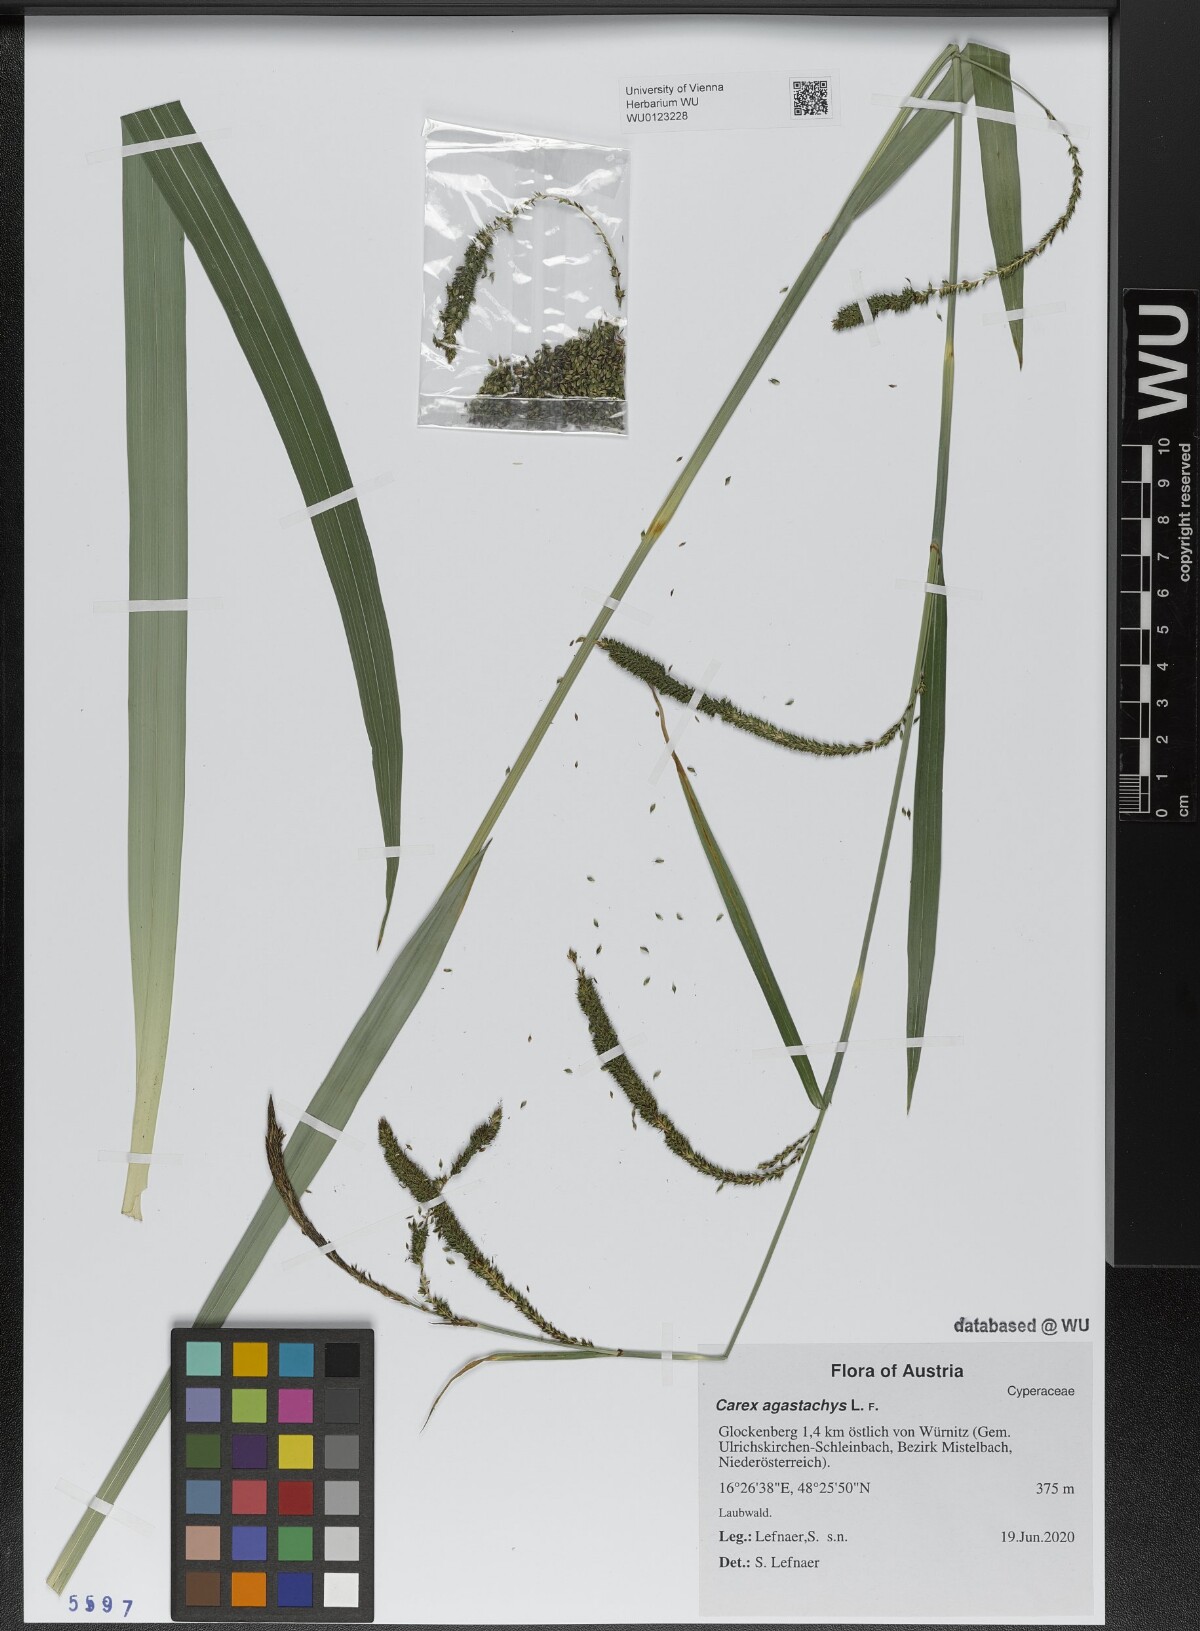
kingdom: Plantae
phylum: Tracheophyta
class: Liliopsida
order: Poales
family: Cyperaceae
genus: Carex
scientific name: Carex agastachys
